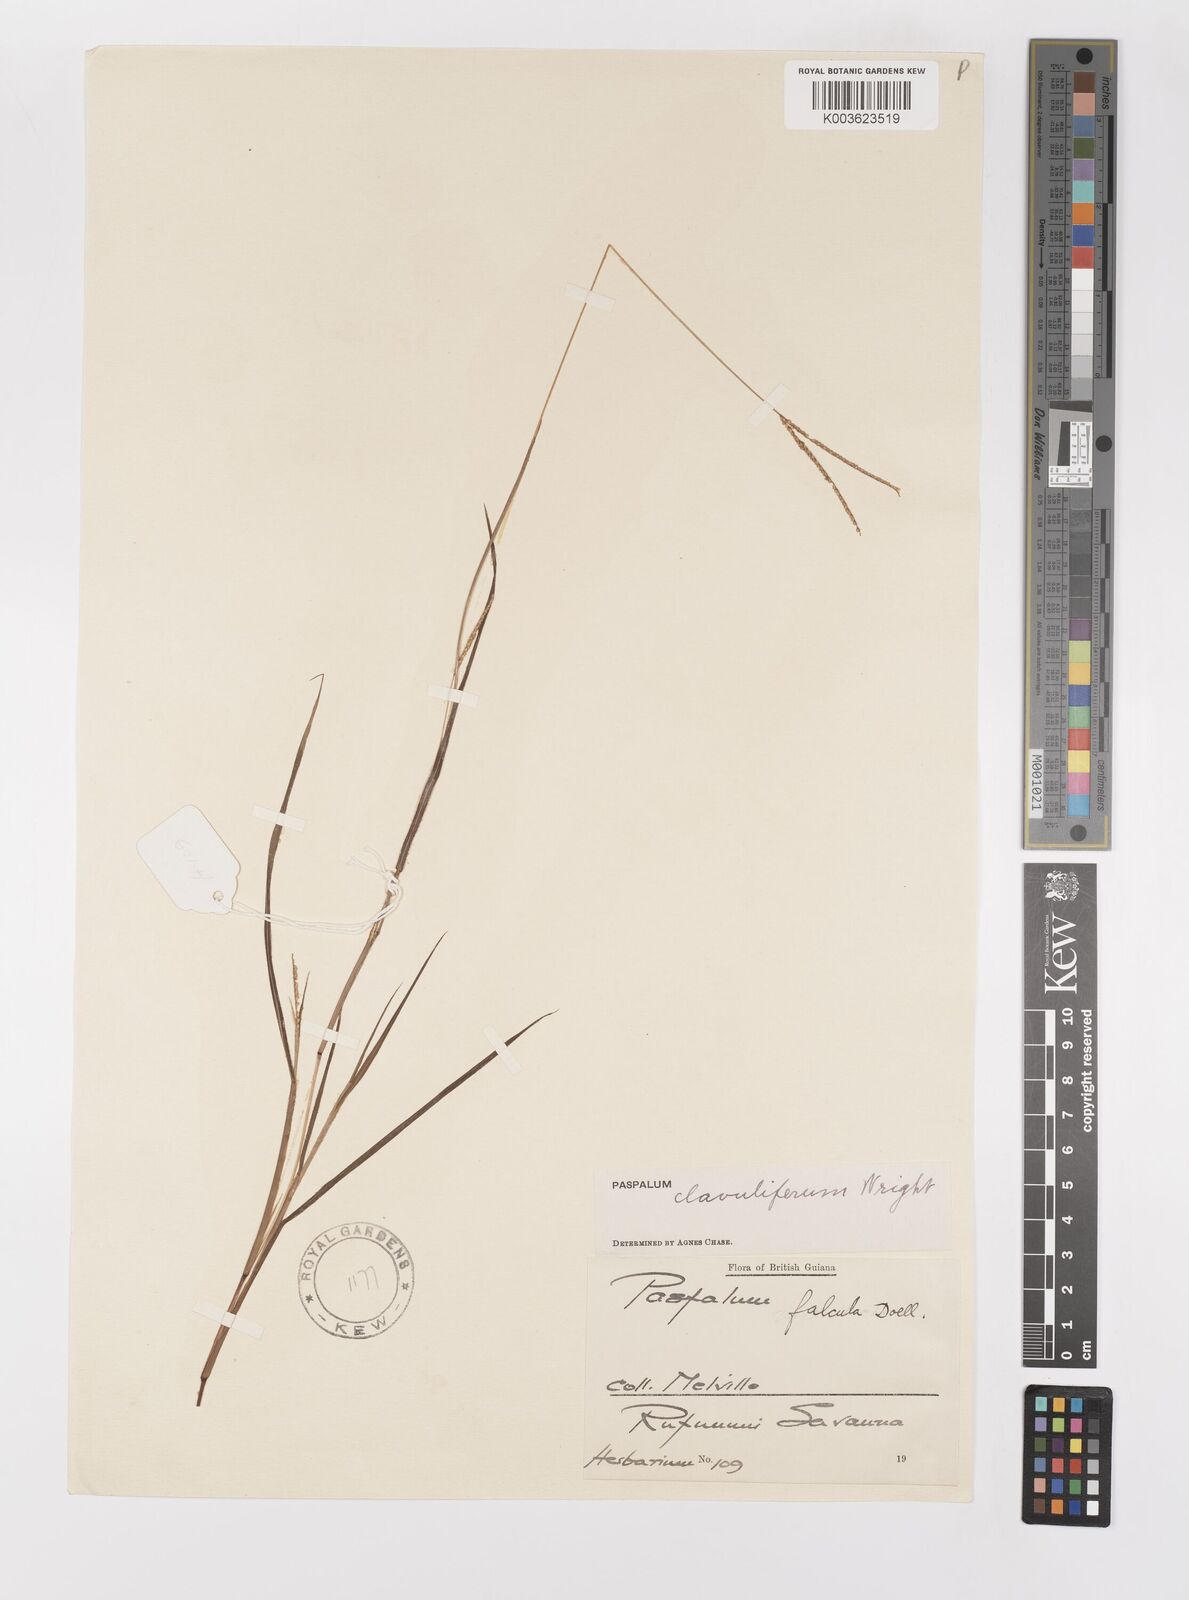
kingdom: Plantae
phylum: Tracheophyta
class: Liliopsida
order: Poales
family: Poaceae
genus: Paspalum
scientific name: Paspalum clavuliferum
